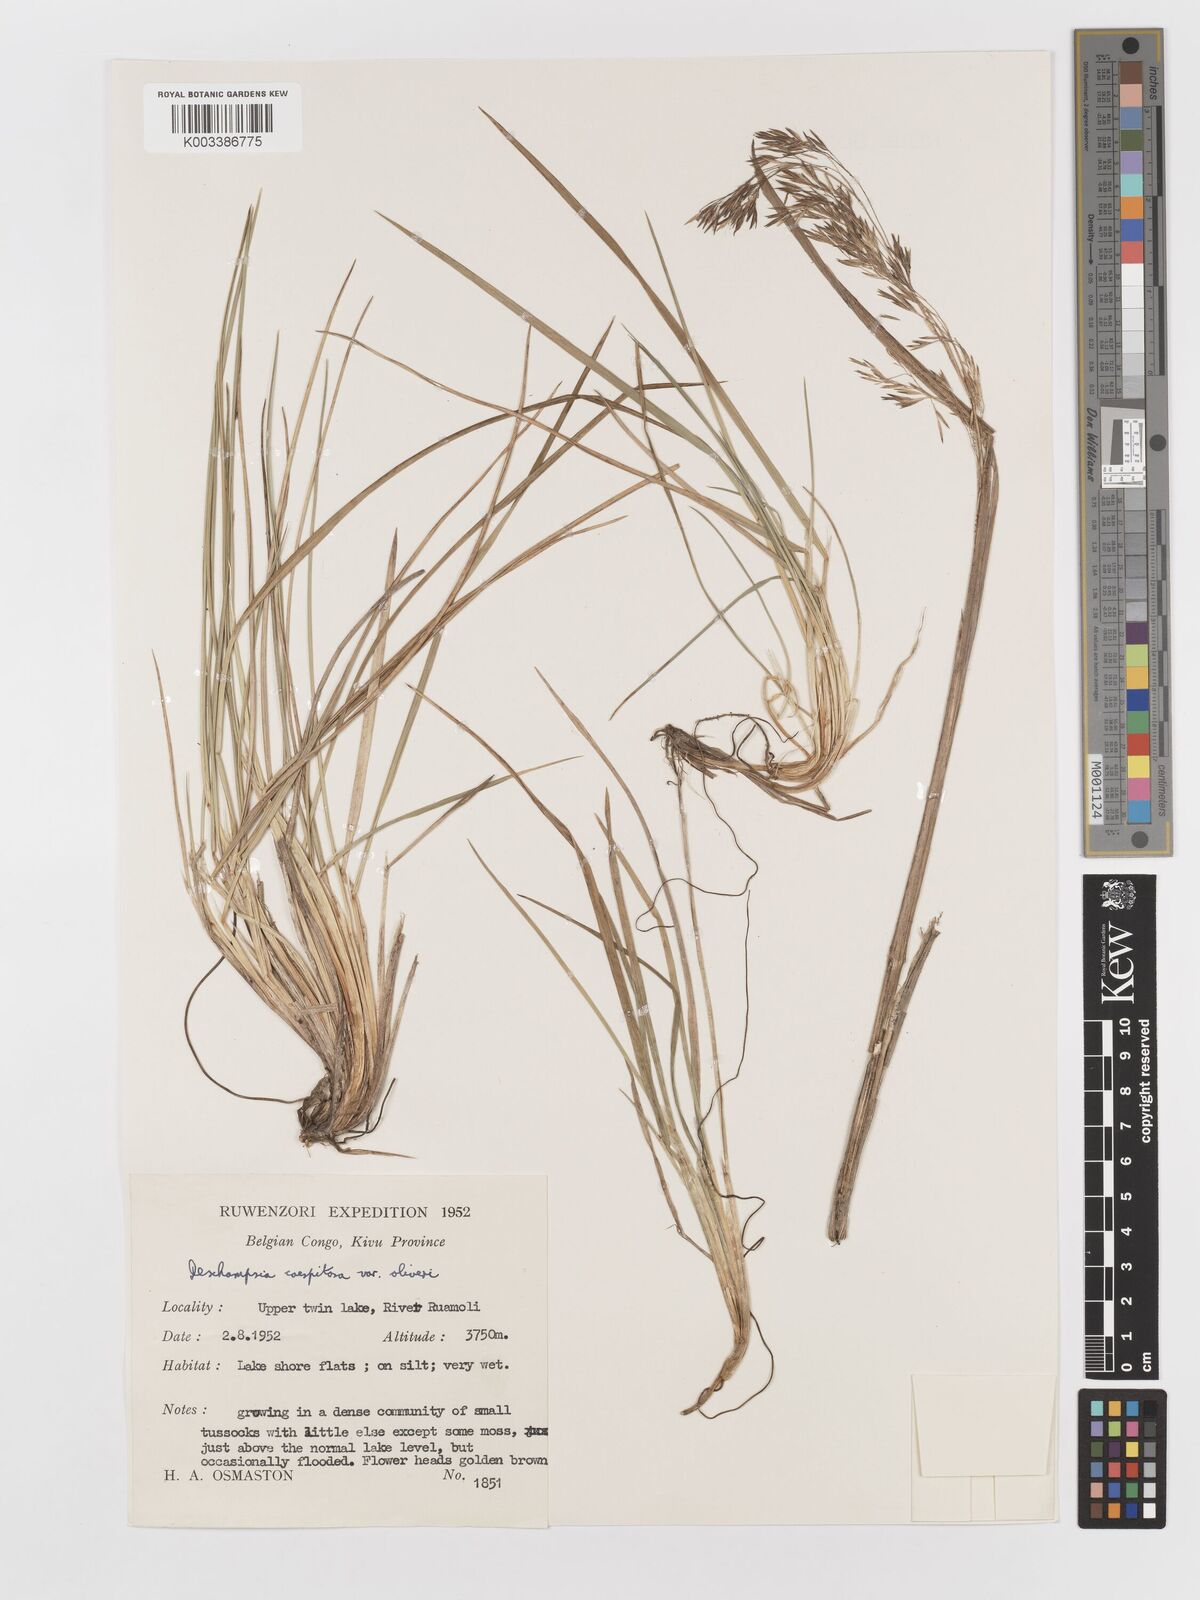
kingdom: Plantae
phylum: Tracheophyta
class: Liliopsida
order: Poales
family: Poaceae
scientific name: Poaceae
